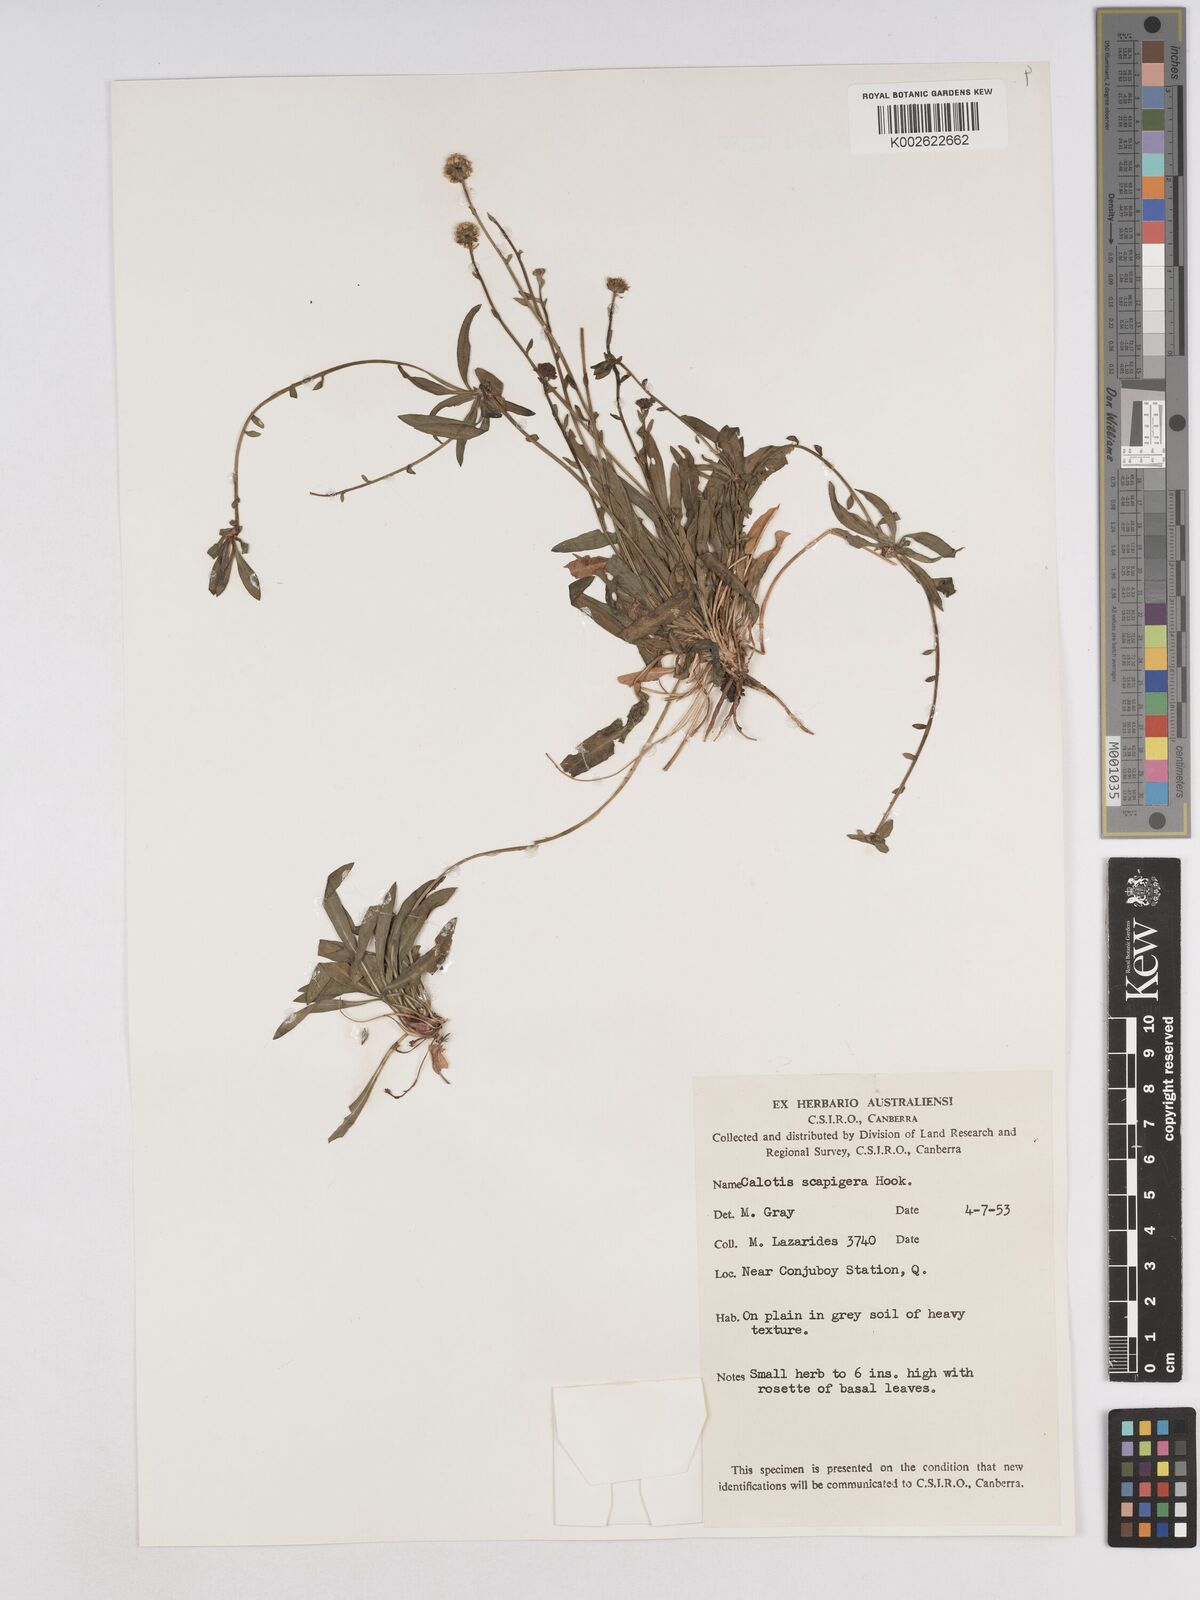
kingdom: Plantae
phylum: Tracheophyta
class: Magnoliopsida
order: Asterales
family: Asteraceae
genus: Calotis
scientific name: Calotis scapigera
